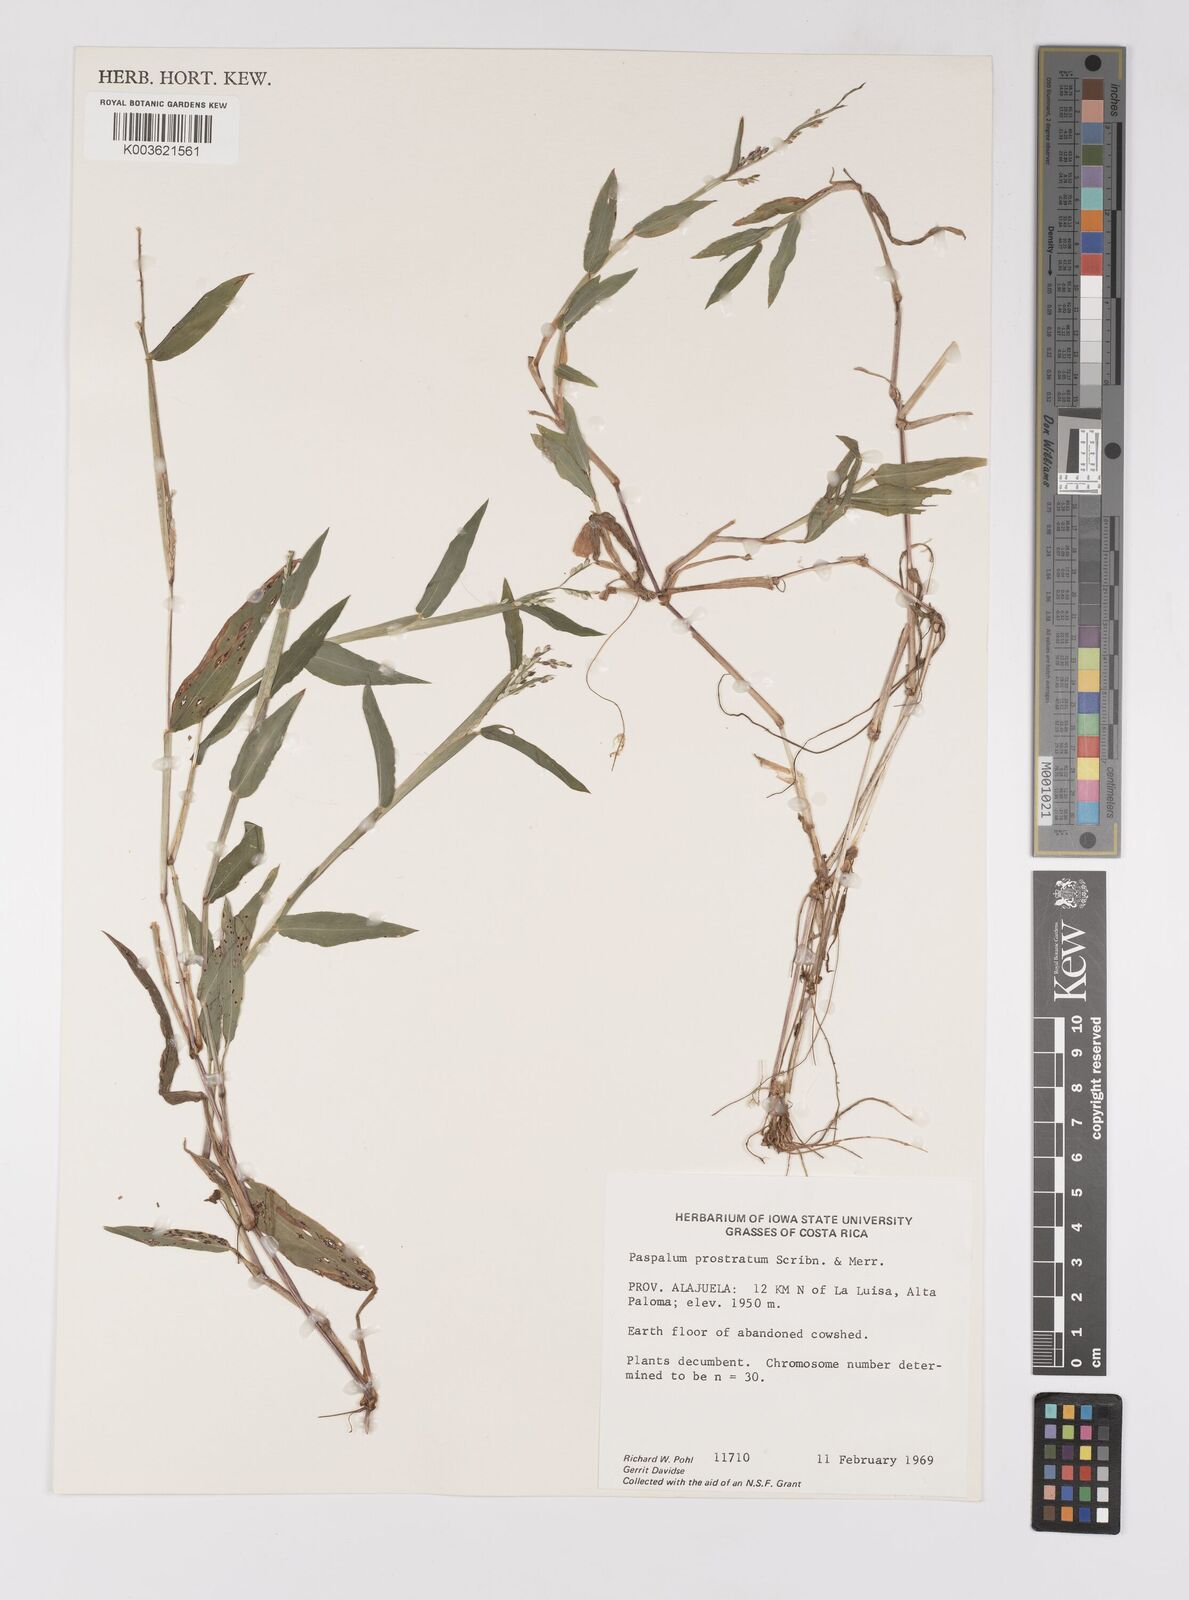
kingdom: Plantae
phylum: Tracheophyta
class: Liliopsida
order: Poales
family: Poaceae
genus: Paspalum
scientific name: Paspalum prostratum
